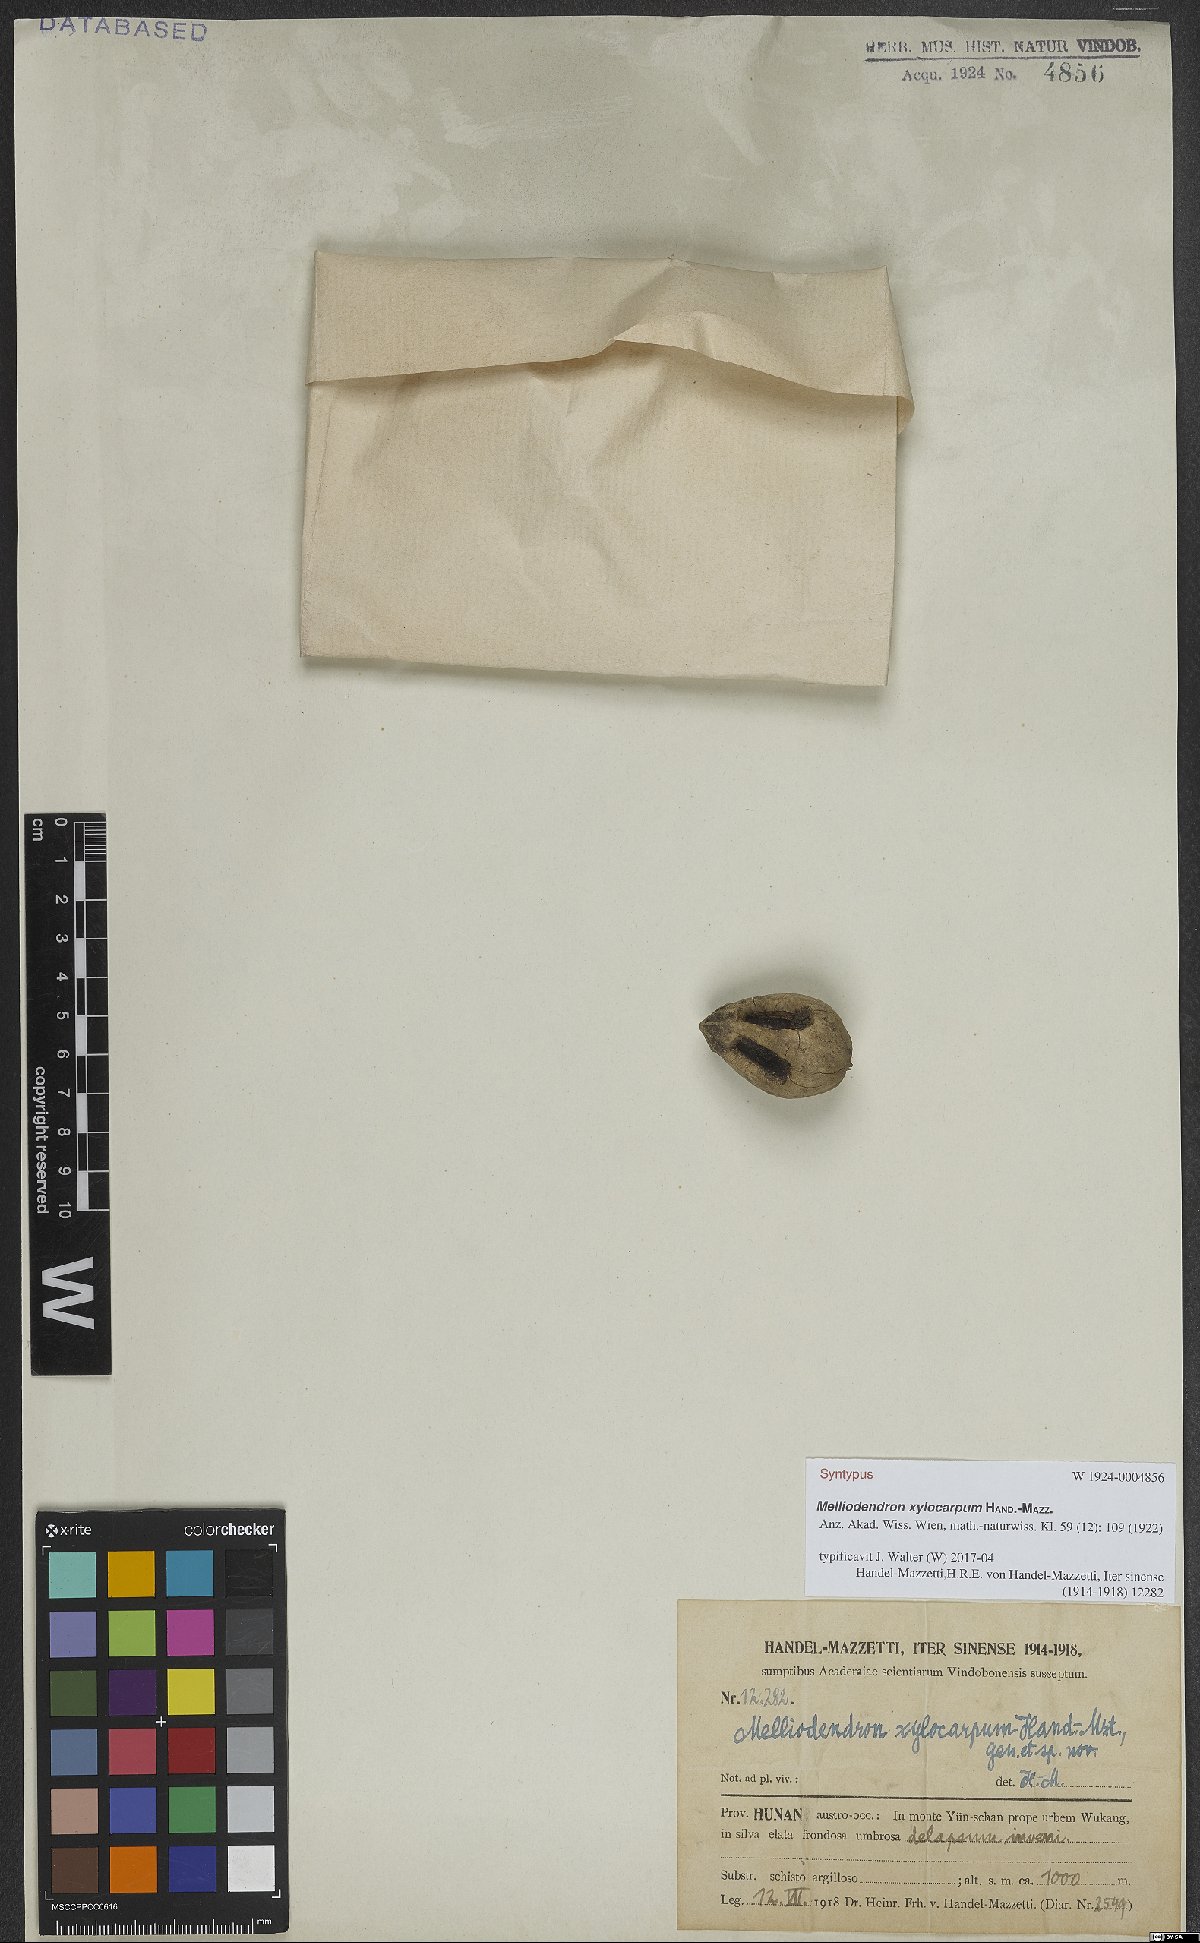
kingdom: Plantae
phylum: Tracheophyta
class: Magnoliopsida
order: Ericales
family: Styracaceae
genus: Melliodendron
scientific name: Melliodendron xylocarpum
